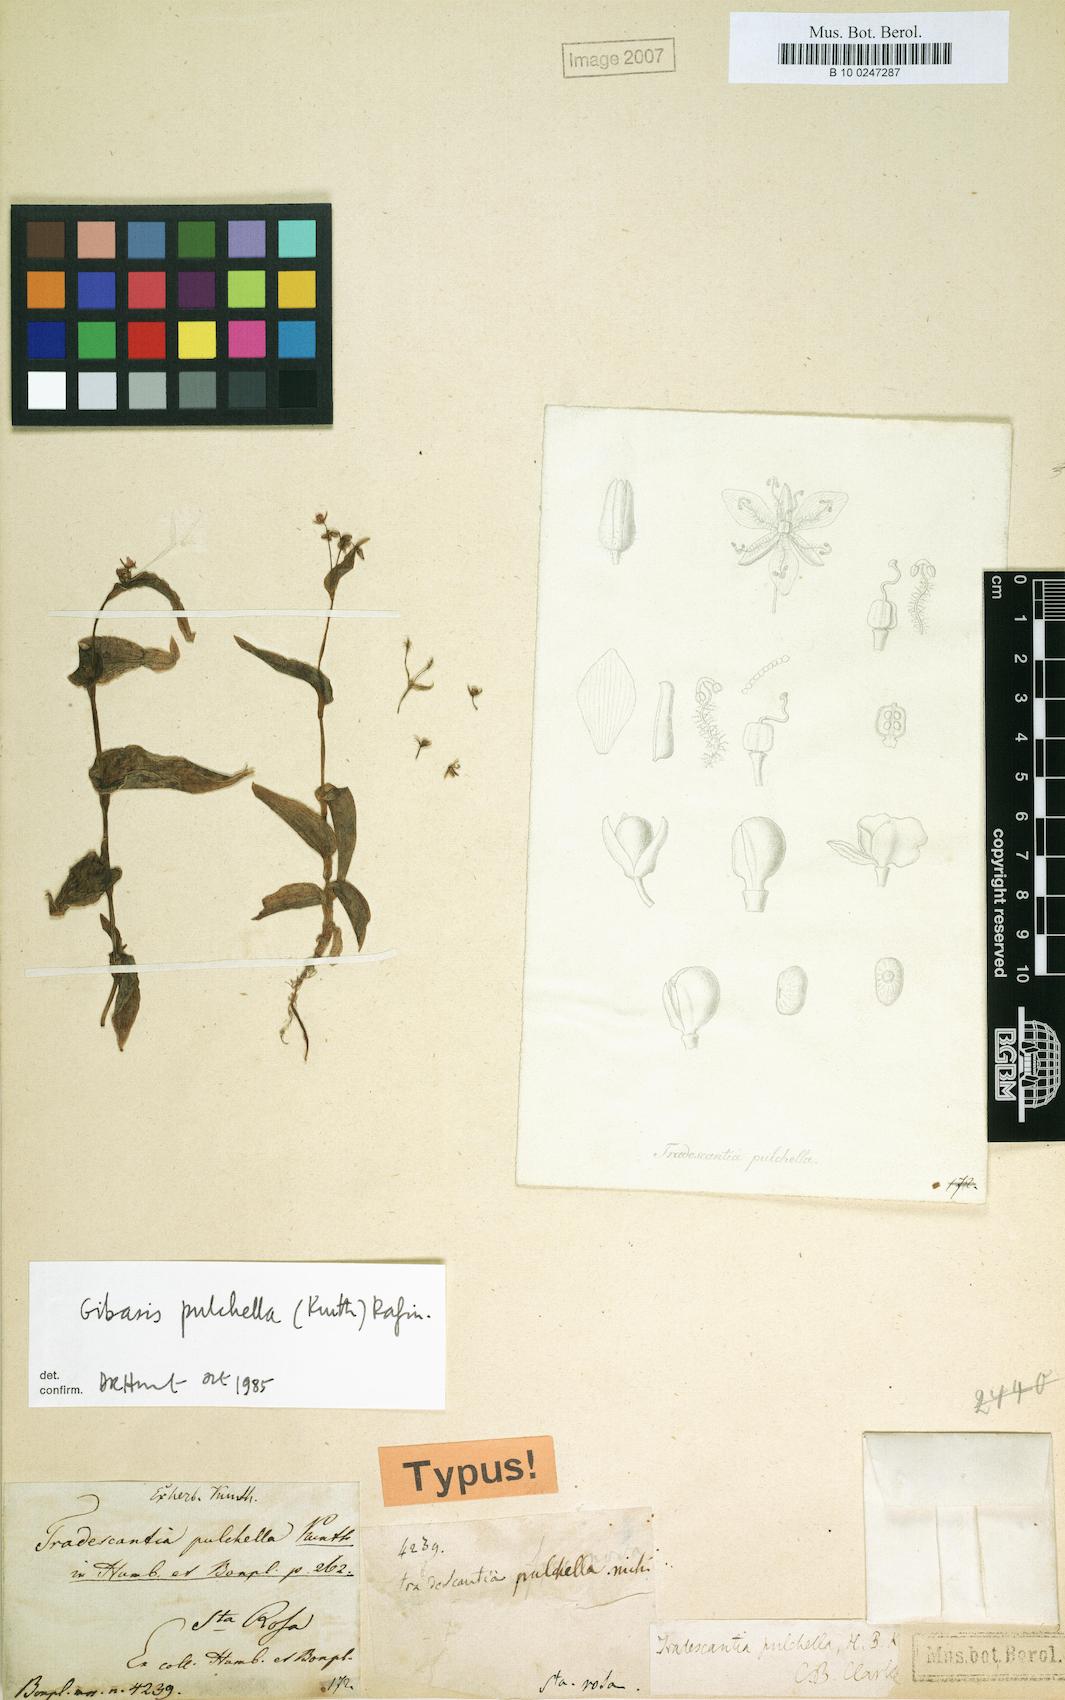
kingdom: Plantae
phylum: Tracheophyta
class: Liliopsida
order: Commelinales
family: Commelinaceae
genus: Gibasis
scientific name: Gibasis pulchella
